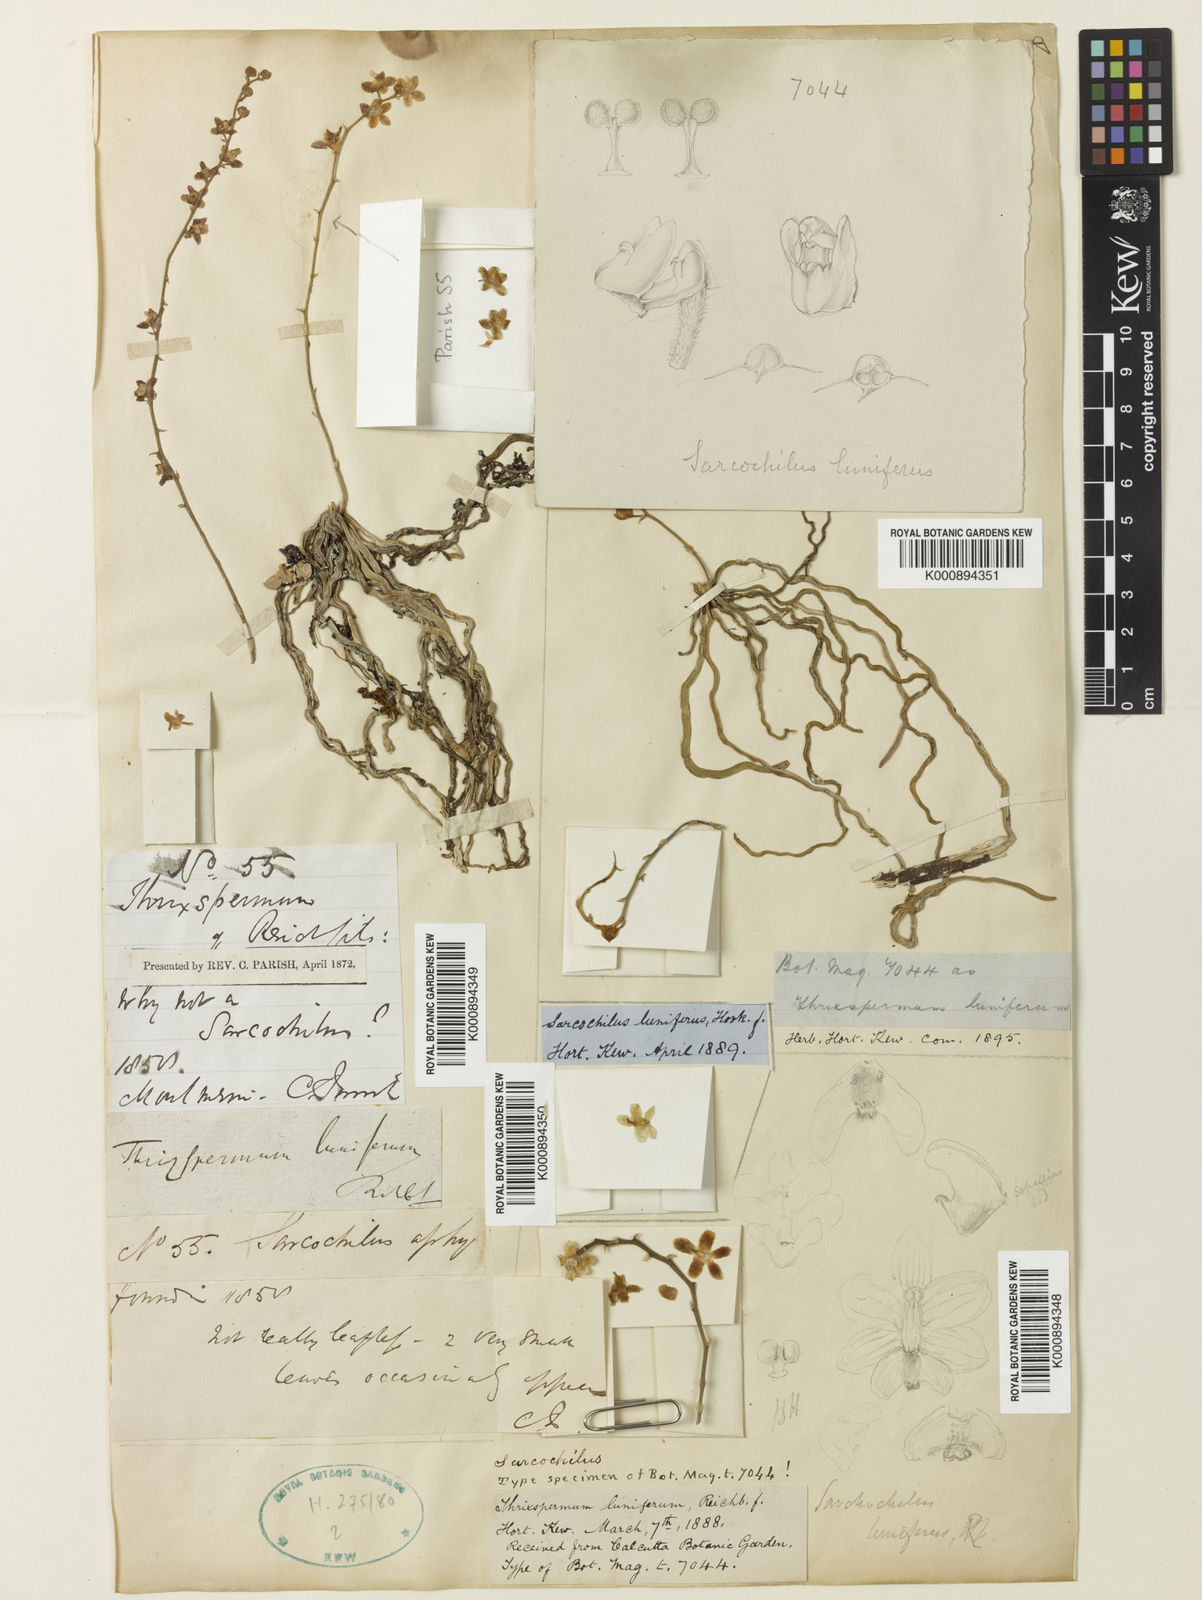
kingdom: Plantae
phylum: Tracheophyta
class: Liliopsida
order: Asparagales
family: Orchidaceae
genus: Chiloschista
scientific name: Chiloschista lunifera
